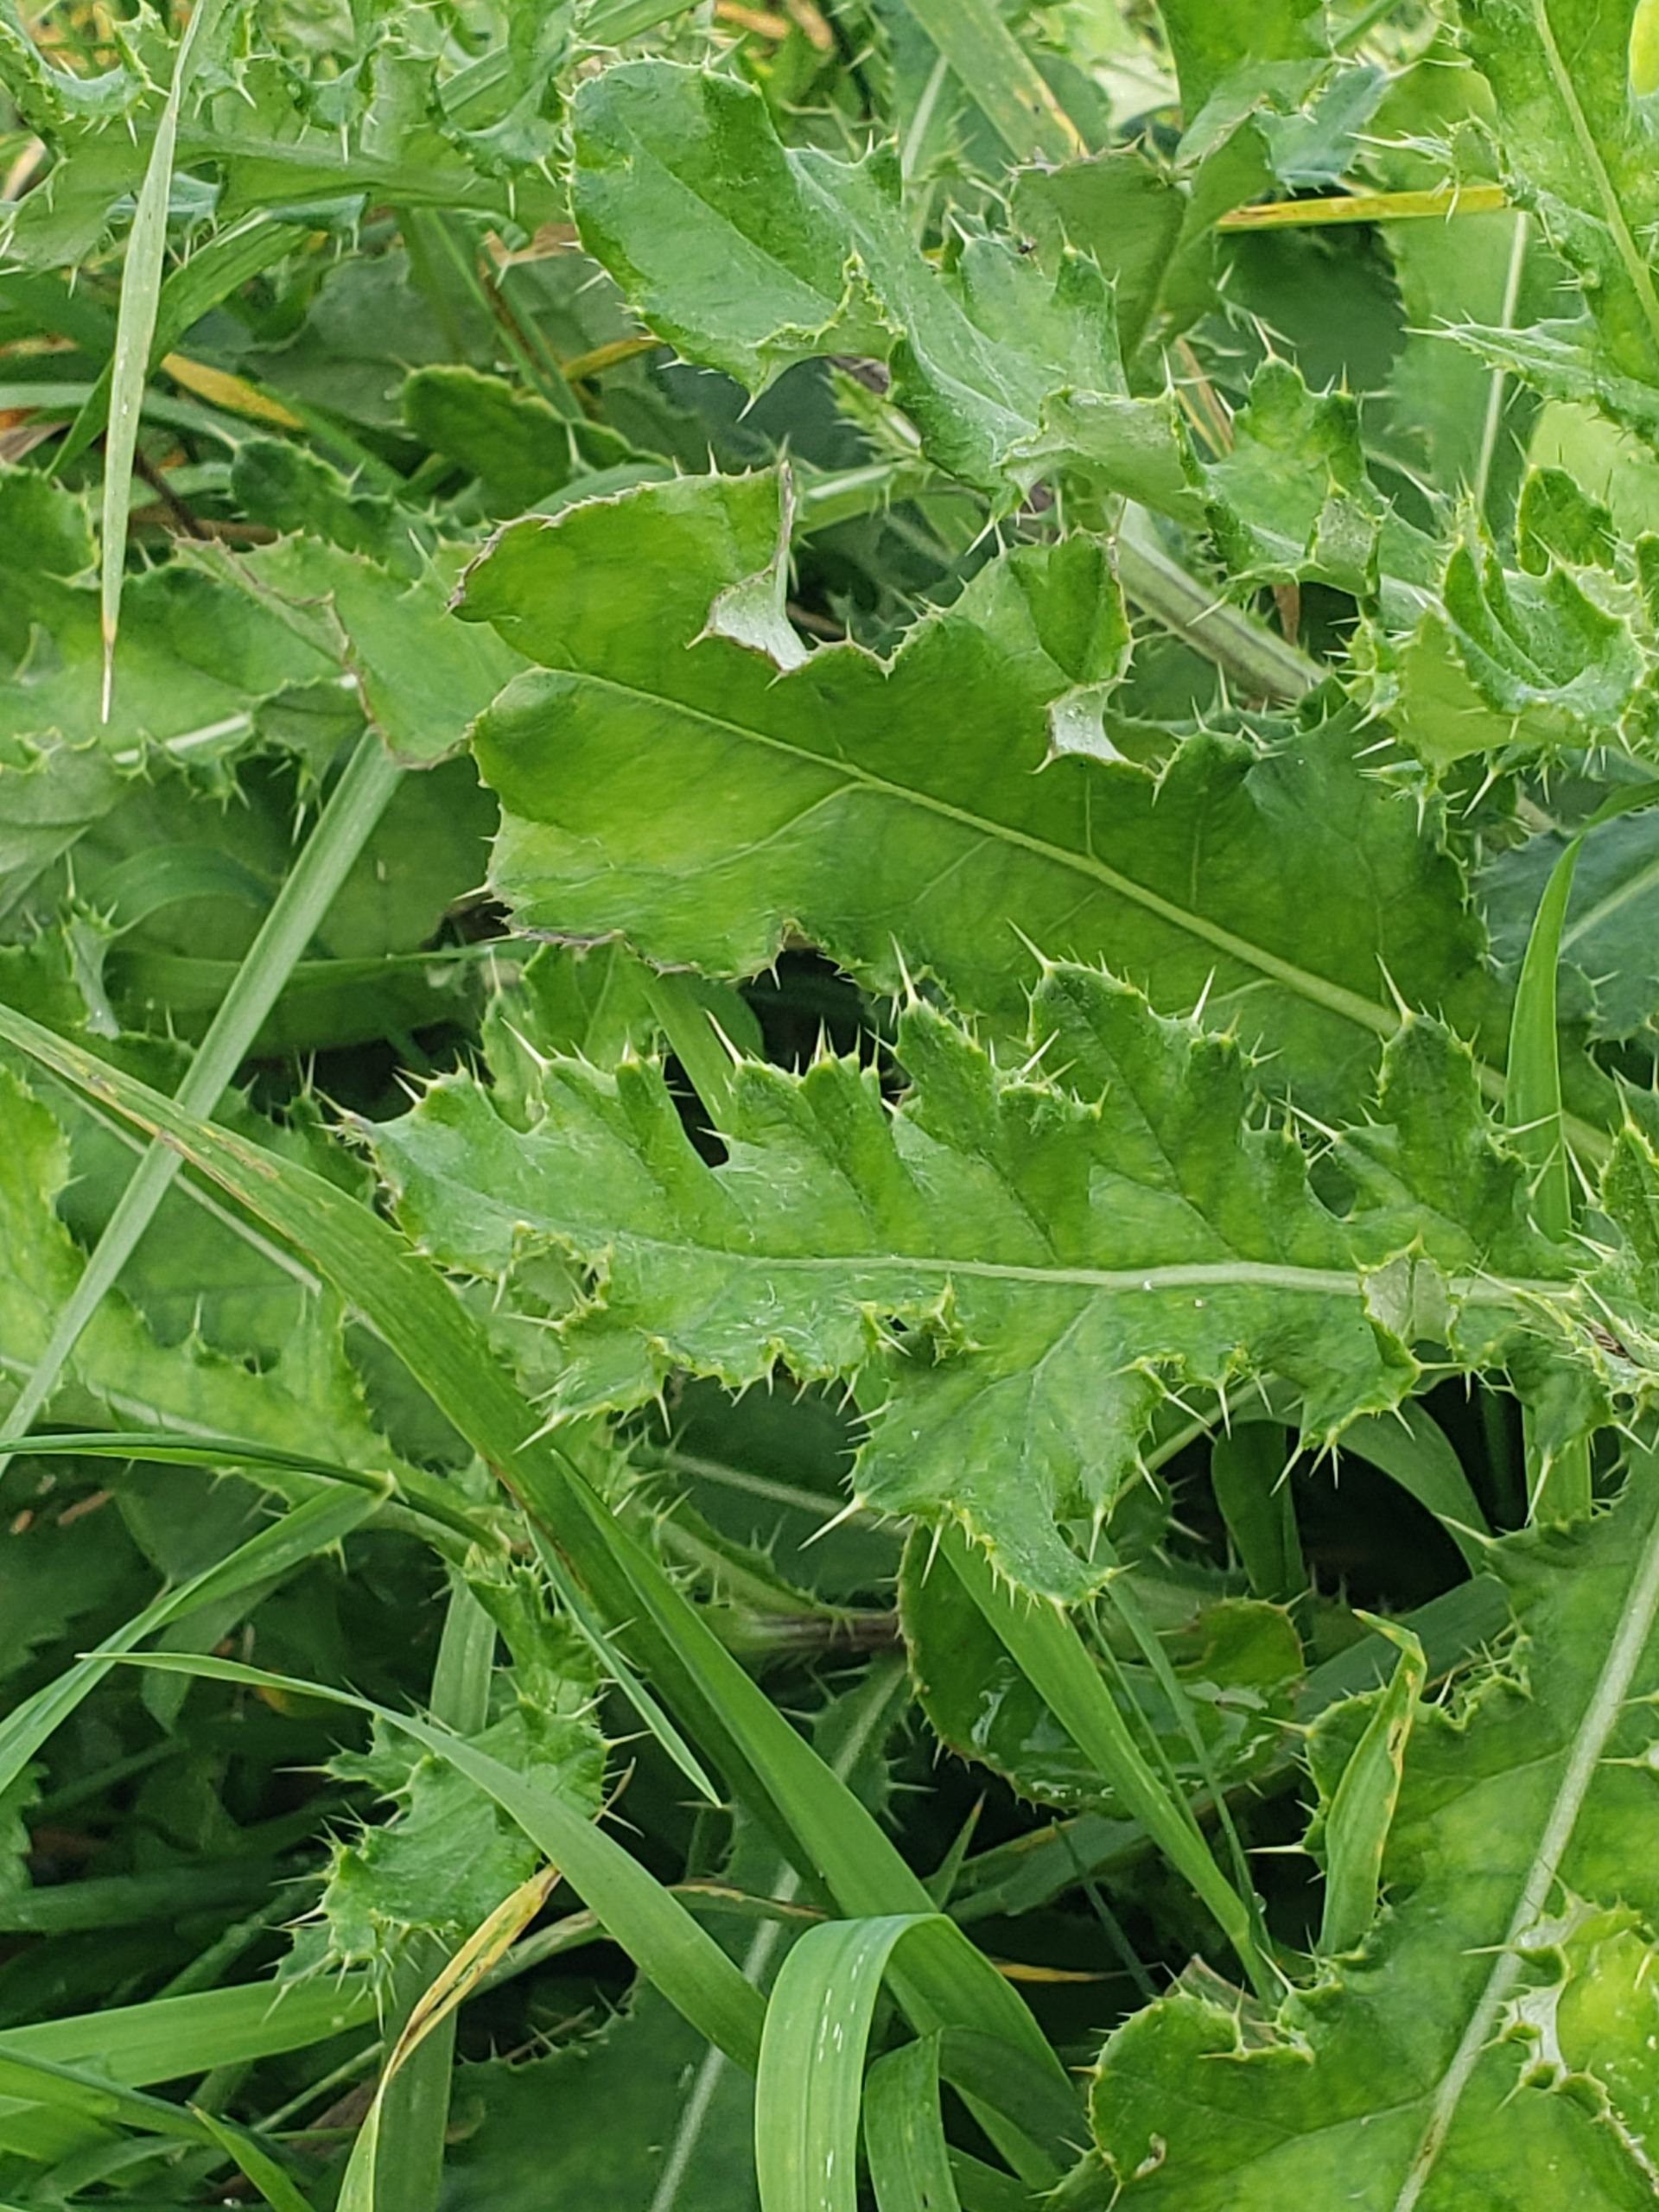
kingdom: Plantae
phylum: Tracheophyta
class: Magnoliopsida
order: Asterales
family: Asteraceae
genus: Cirsium
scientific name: Cirsium arvense
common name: Ager-tidsel
